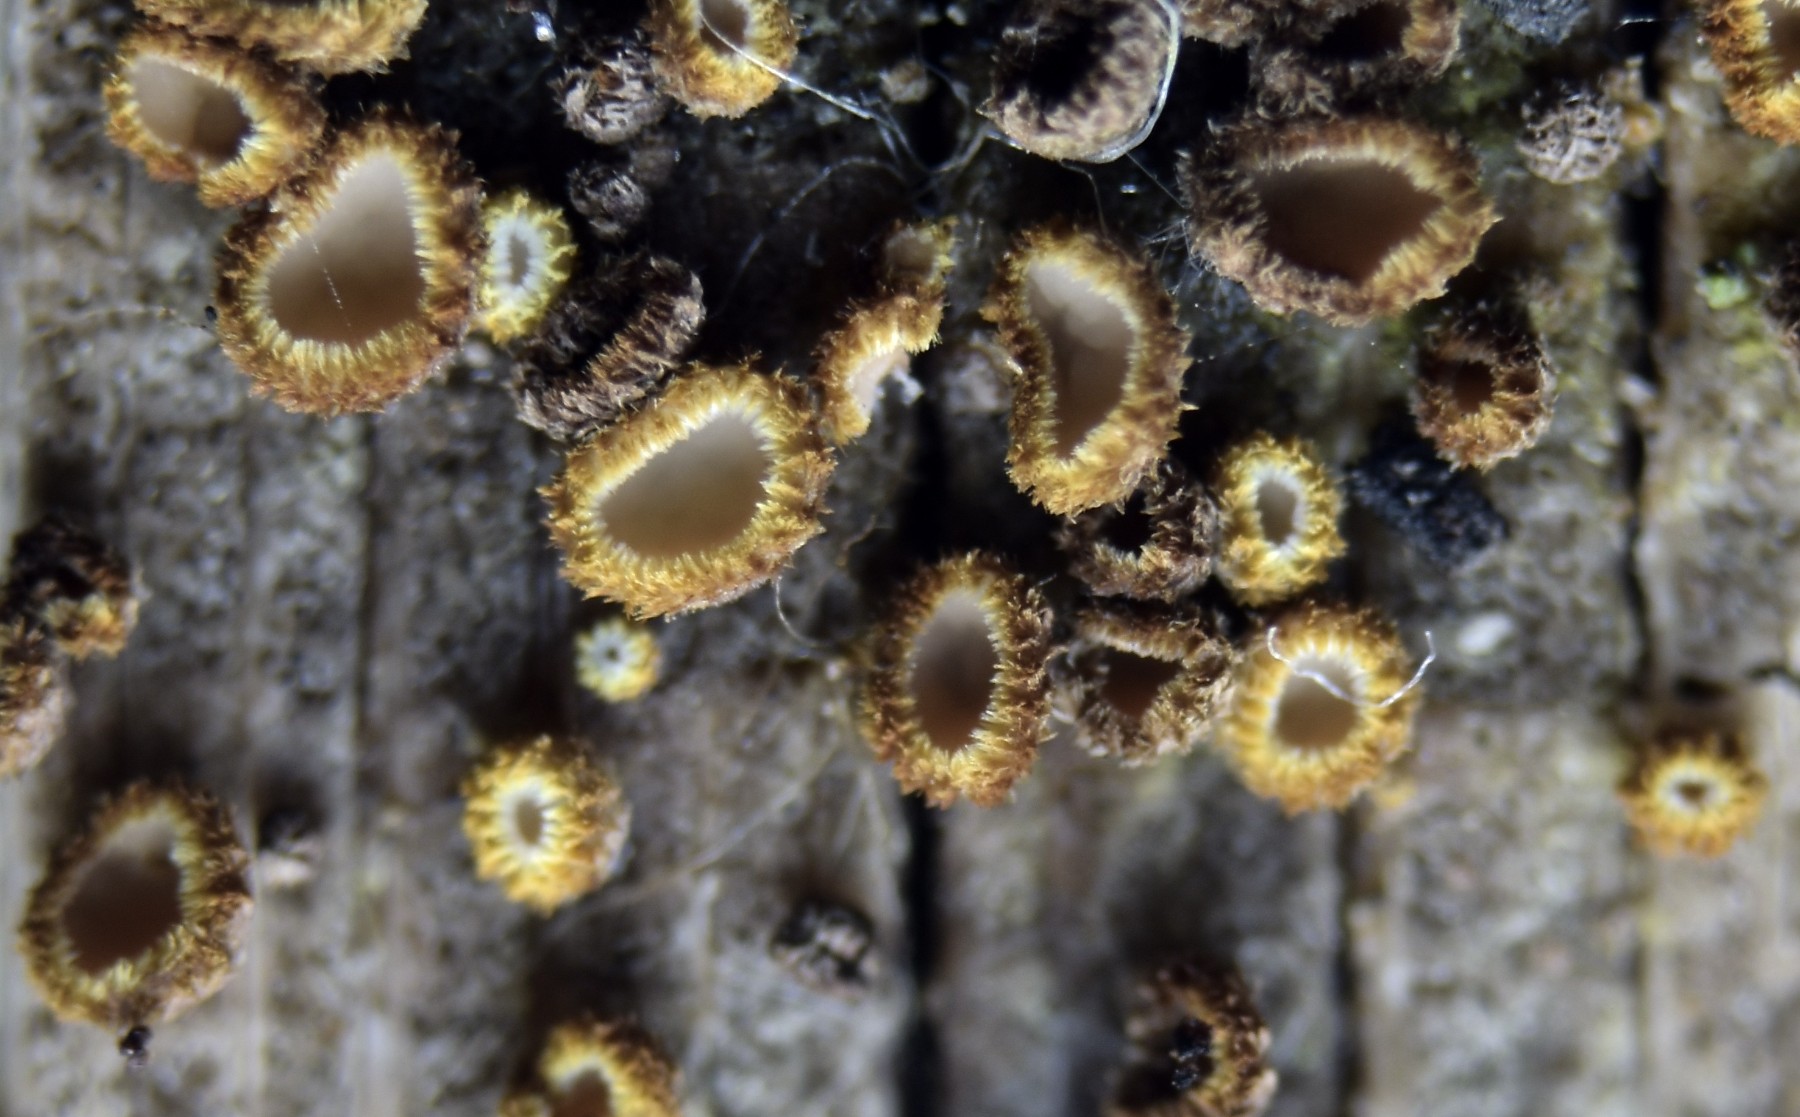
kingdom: Fungi
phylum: Ascomycota
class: Leotiomycetes
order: Helotiales
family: Lachnaceae
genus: Trichopeziza
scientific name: Trichopeziza subsulphurea
